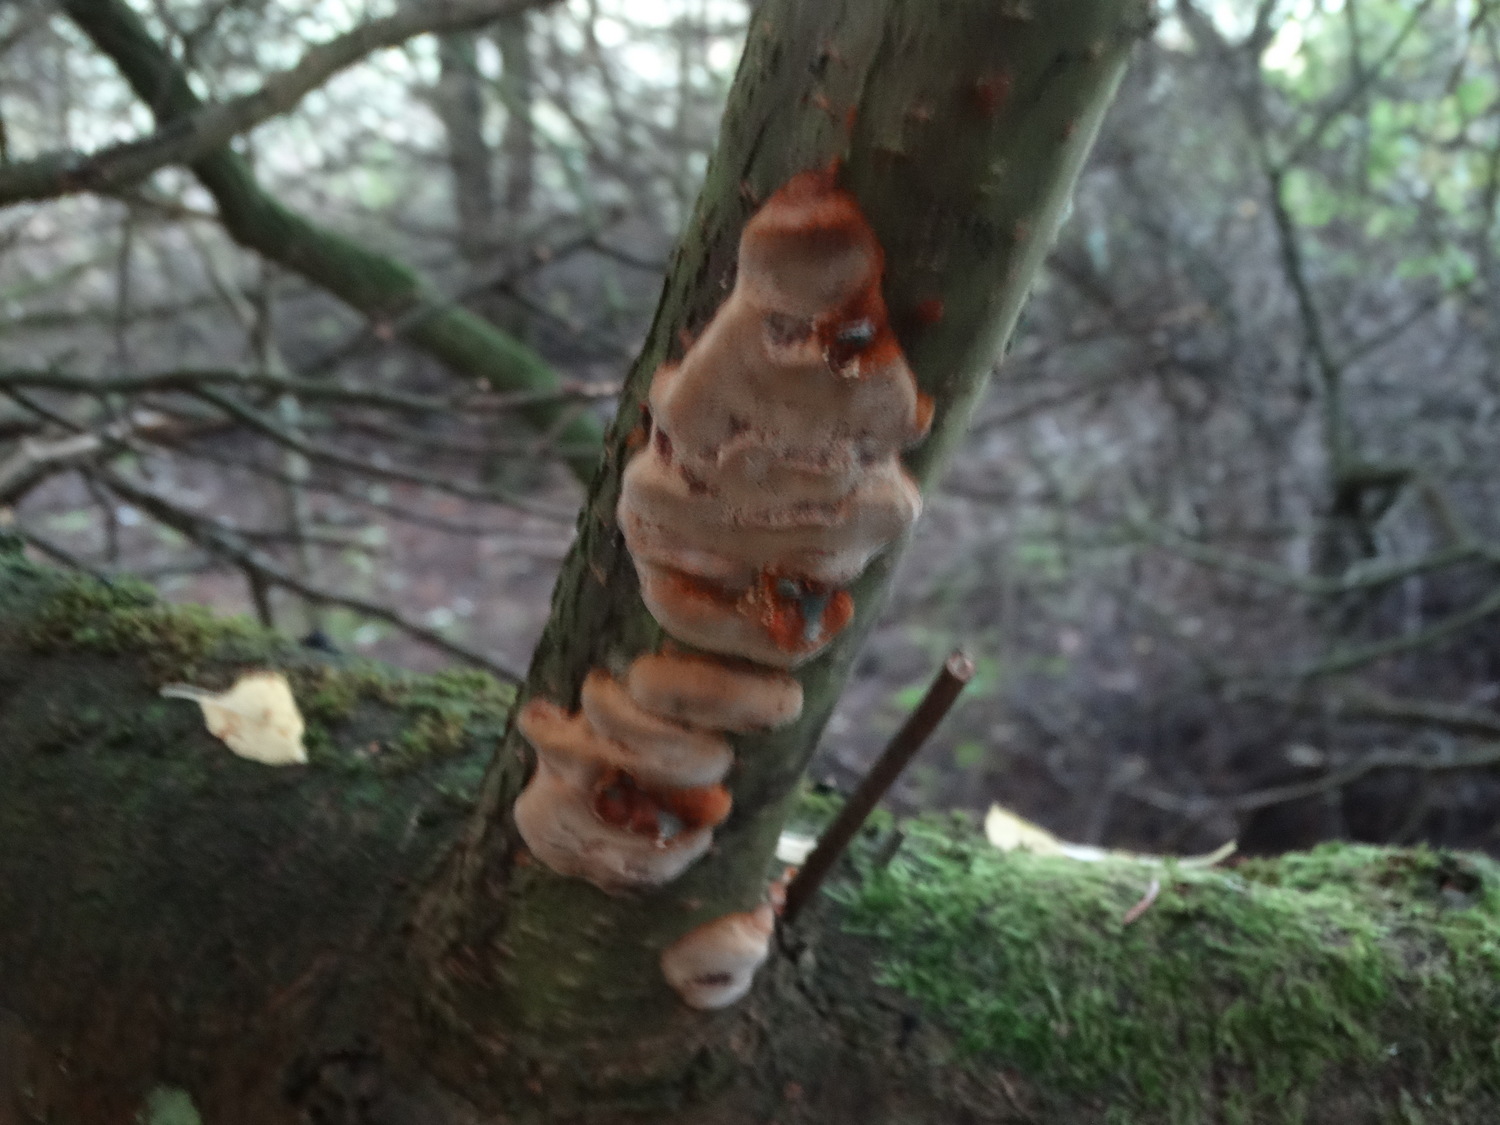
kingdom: Fungi
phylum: Basidiomycota
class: Agaricomycetes
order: Hymenochaetales
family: Hymenochaetaceae
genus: Phellinus
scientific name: Phellinus pomaceus
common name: blomme-ildporesvamp
